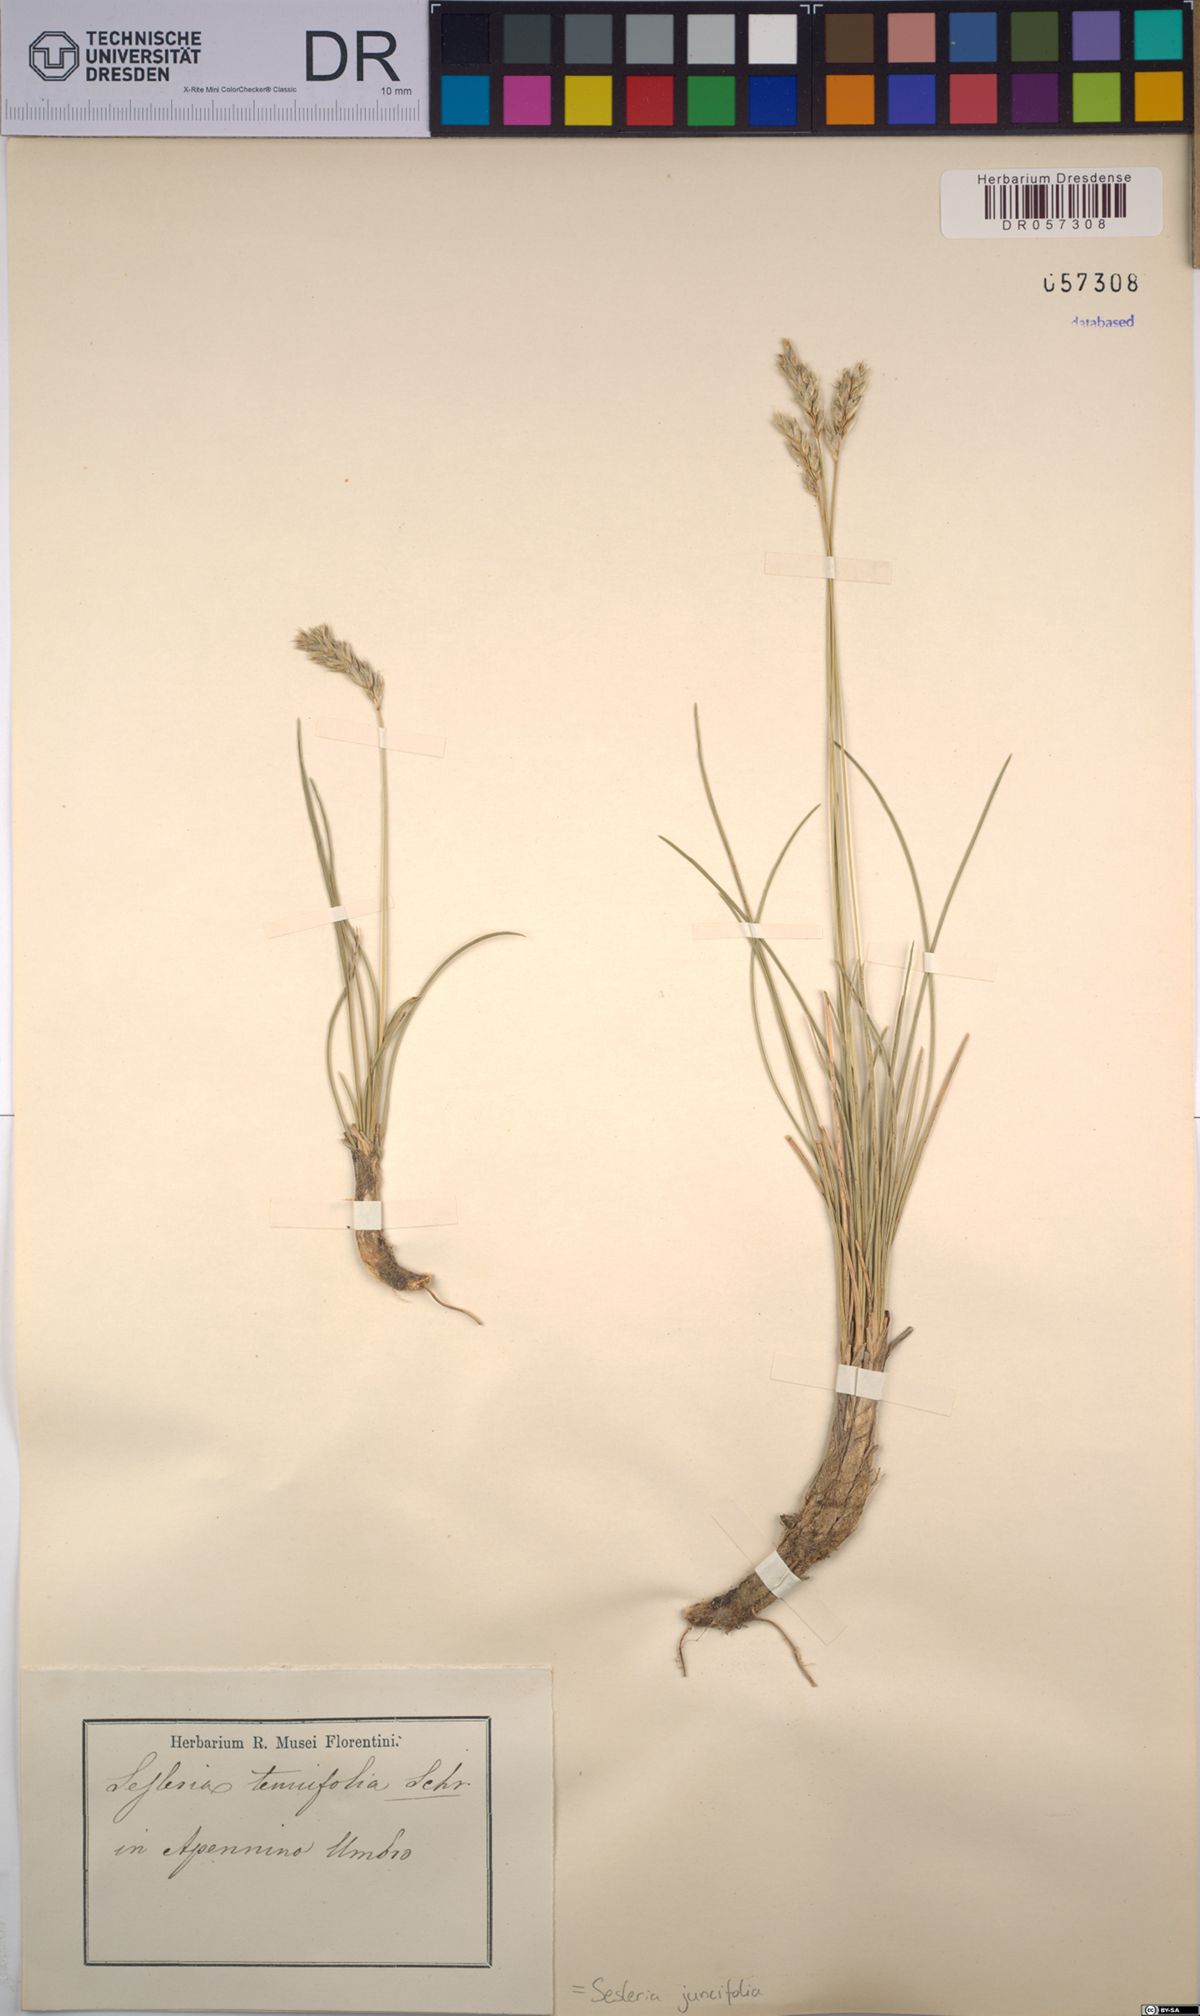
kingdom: Plantae
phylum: Tracheophyta
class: Liliopsida
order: Poales
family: Poaceae
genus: Sesleria
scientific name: Sesleria juncifolia
